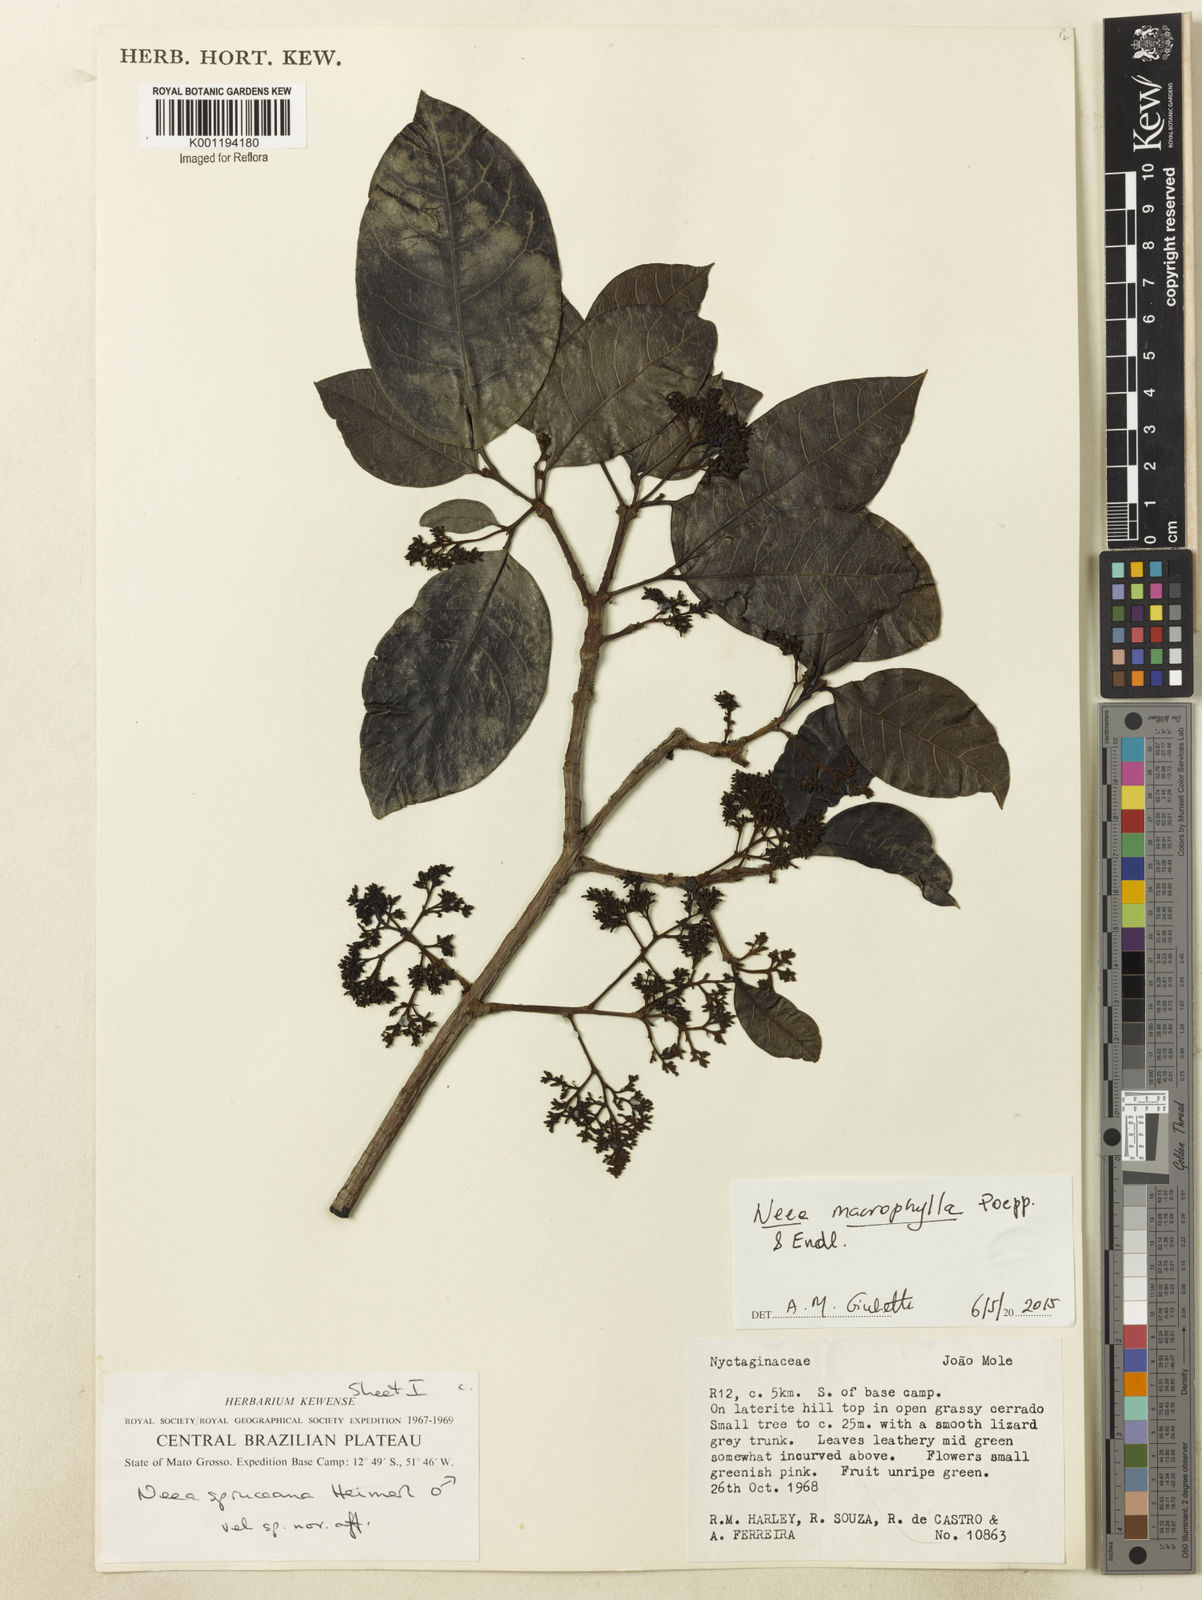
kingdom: Plantae
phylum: Tracheophyta
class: Magnoliopsida
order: Caryophyllales
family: Nyctaginaceae
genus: Neea
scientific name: Neea macrophylla
